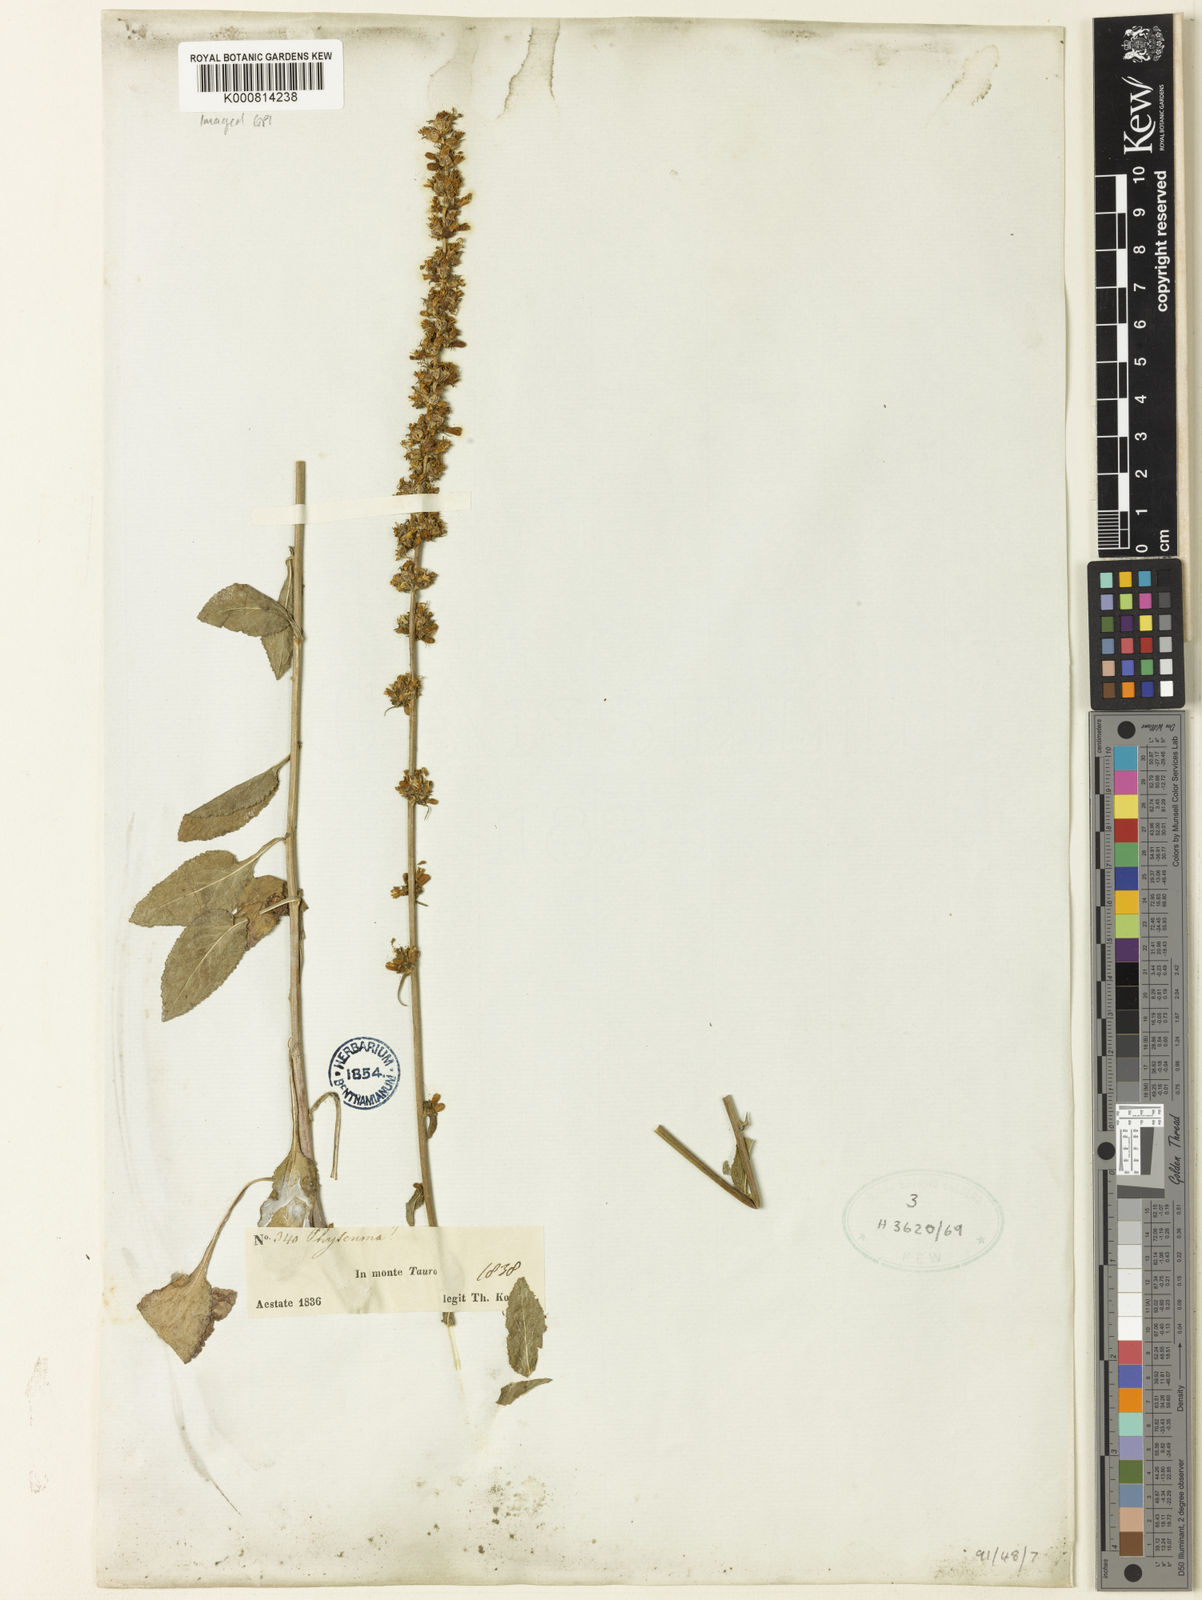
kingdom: Plantae
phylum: Tracheophyta
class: Magnoliopsida
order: Asterales
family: Campanulaceae
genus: Phyteuma
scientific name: Phyteuma
